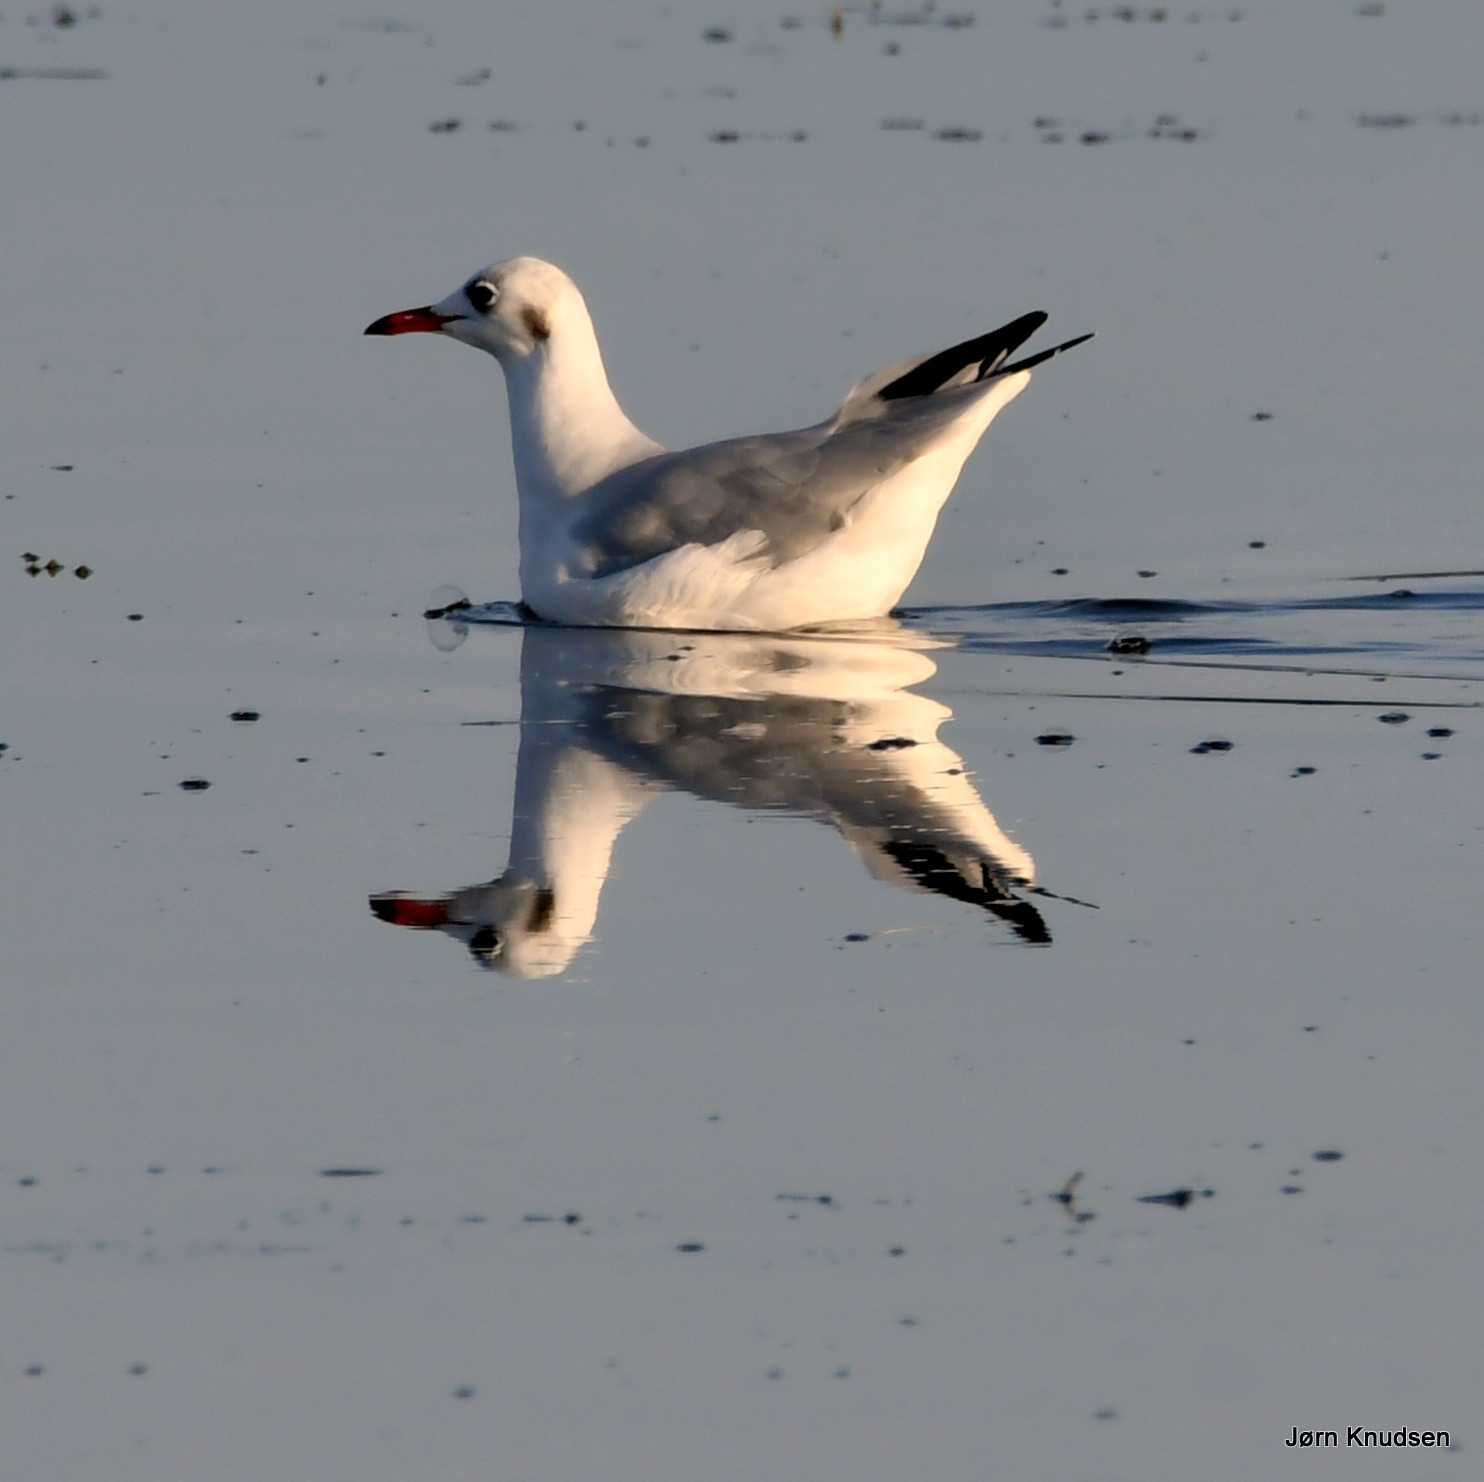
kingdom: Animalia
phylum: Chordata
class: Aves
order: Charadriiformes
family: Laridae
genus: Chroicocephalus
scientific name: Chroicocephalus ridibundus
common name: Hættemåge
